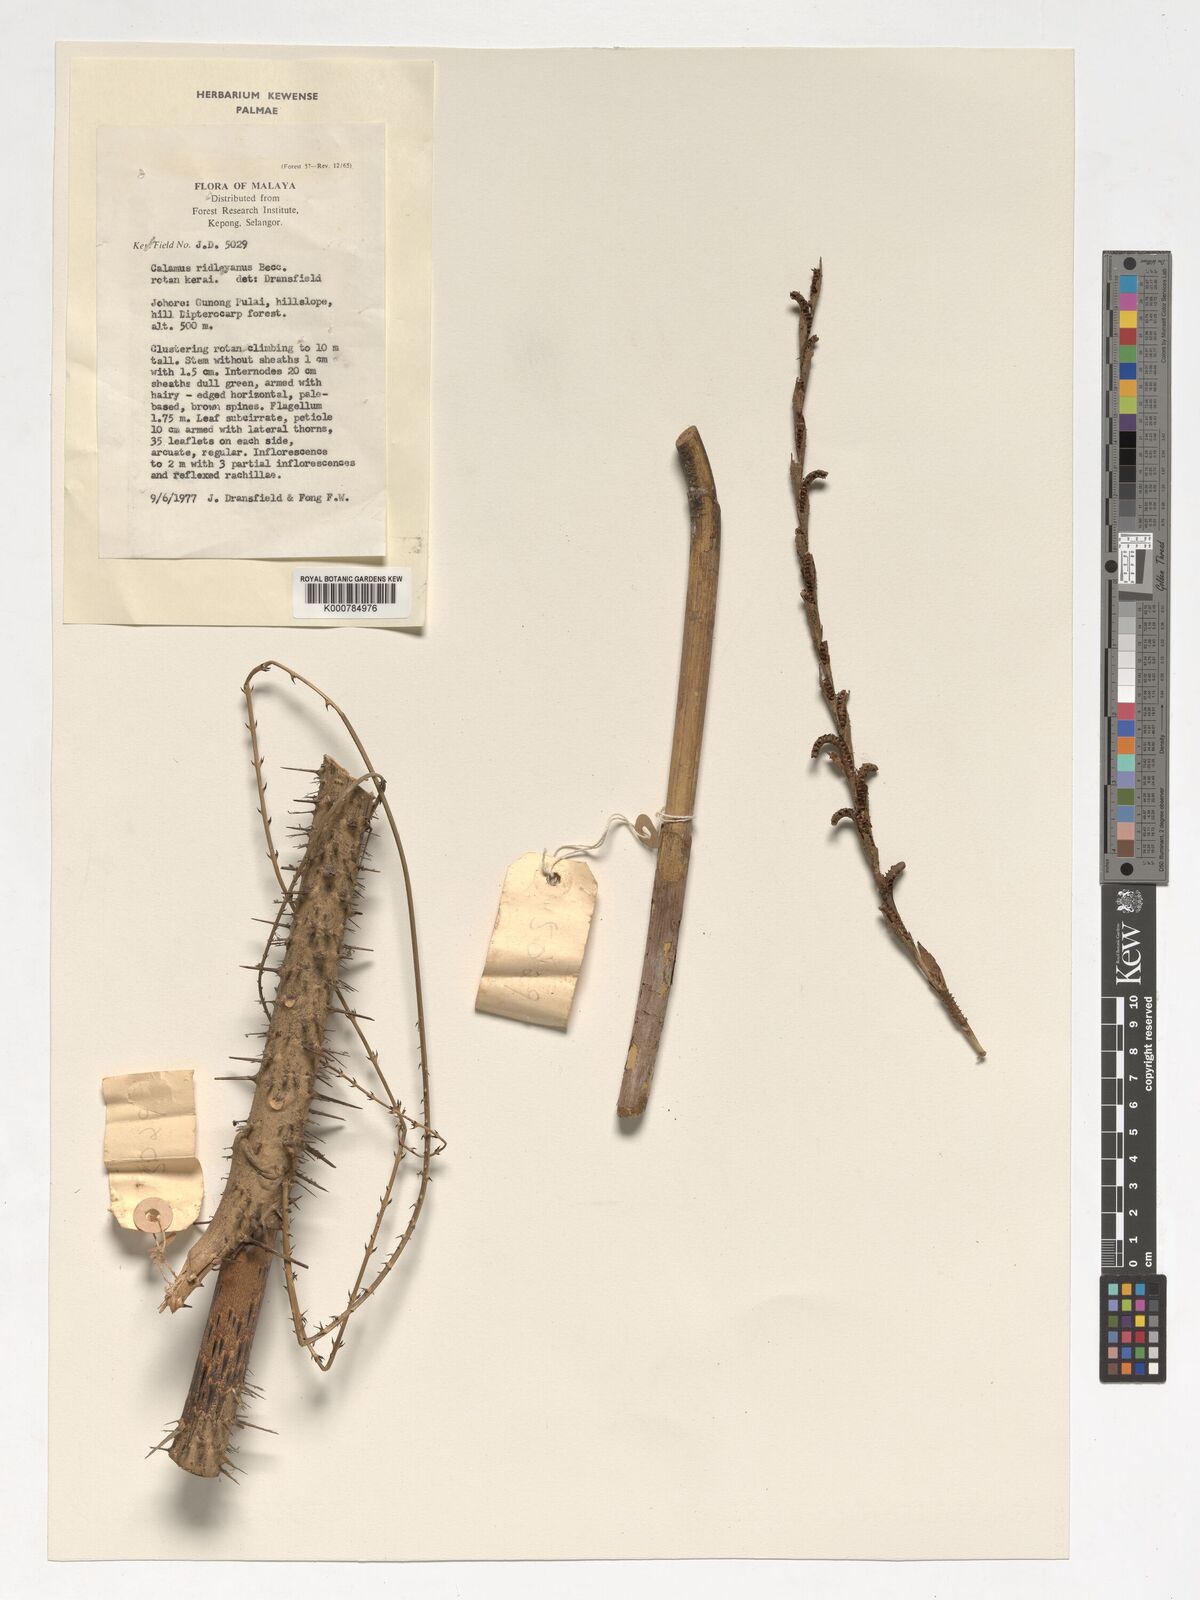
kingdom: Plantae
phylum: Tracheophyta
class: Liliopsida
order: Arecales
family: Arecaceae
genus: Calamus
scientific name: Calamus ridleyanus
